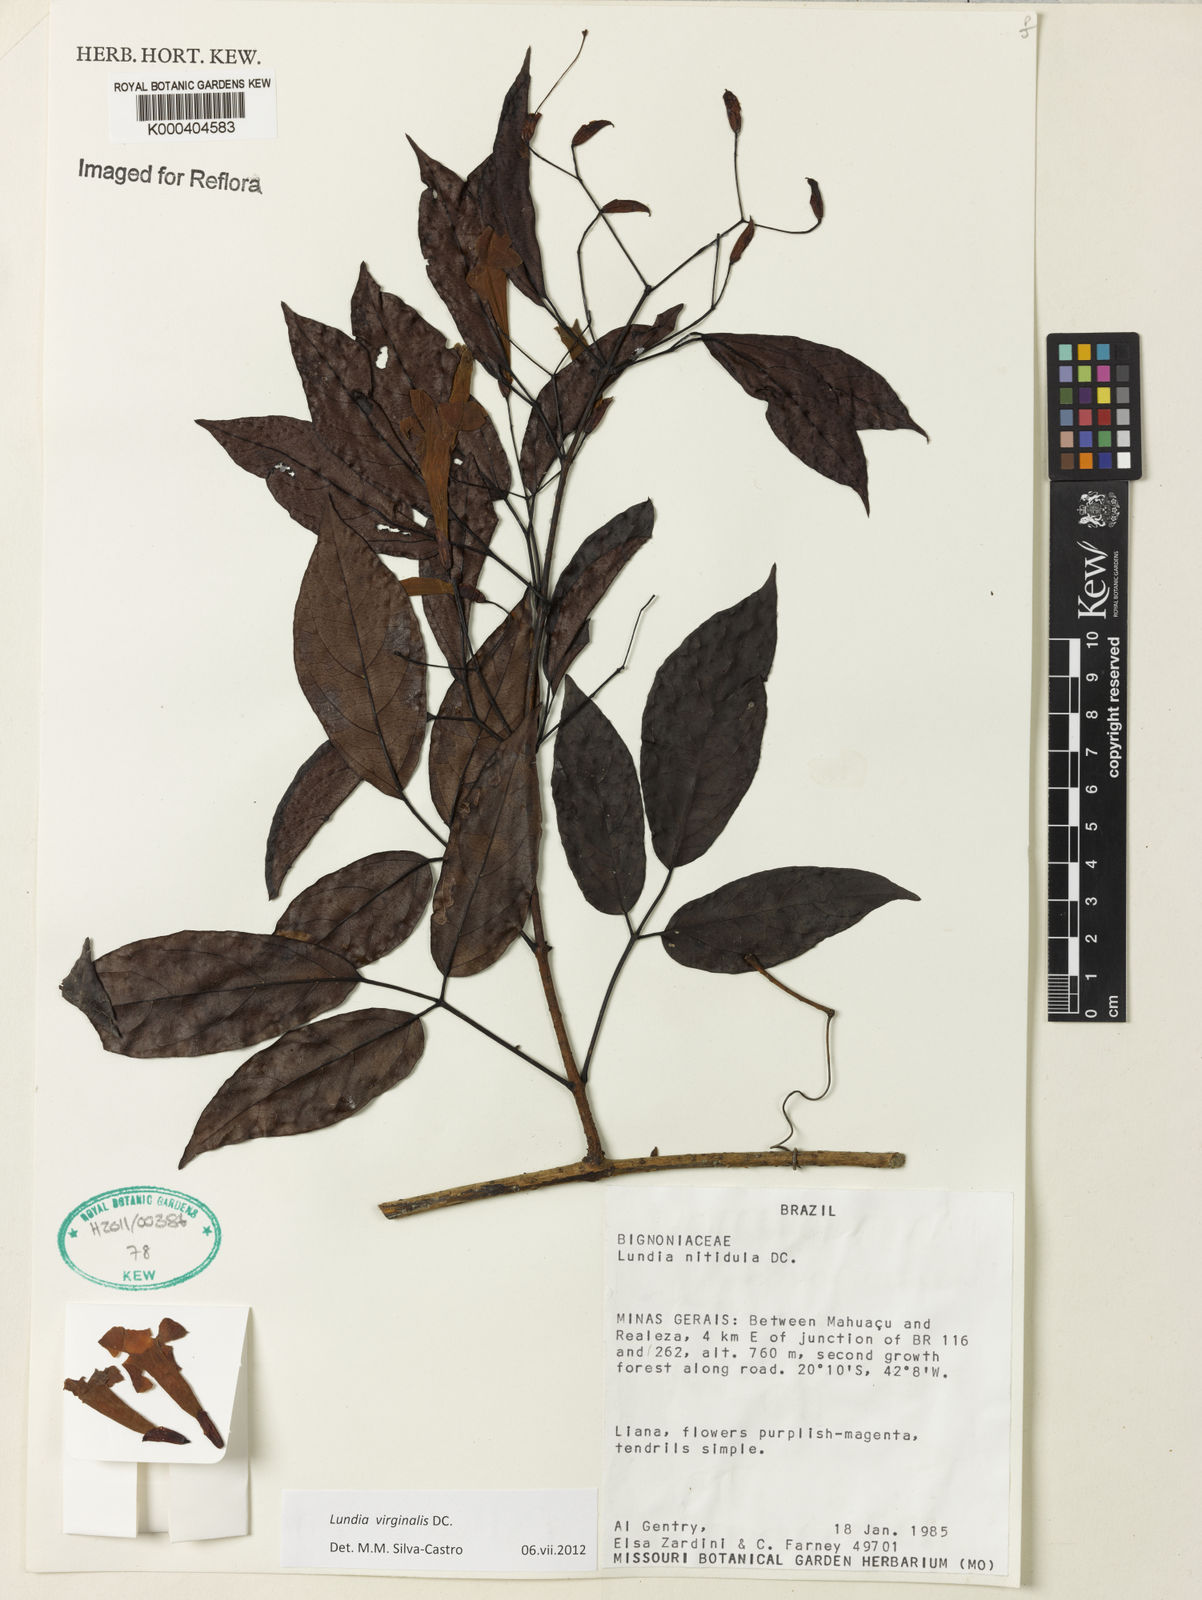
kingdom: Plantae
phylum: Tracheophyta
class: Magnoliopsida
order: Lamiales
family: Bignoniaceae
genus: Lundia
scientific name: Lundia virginalis
